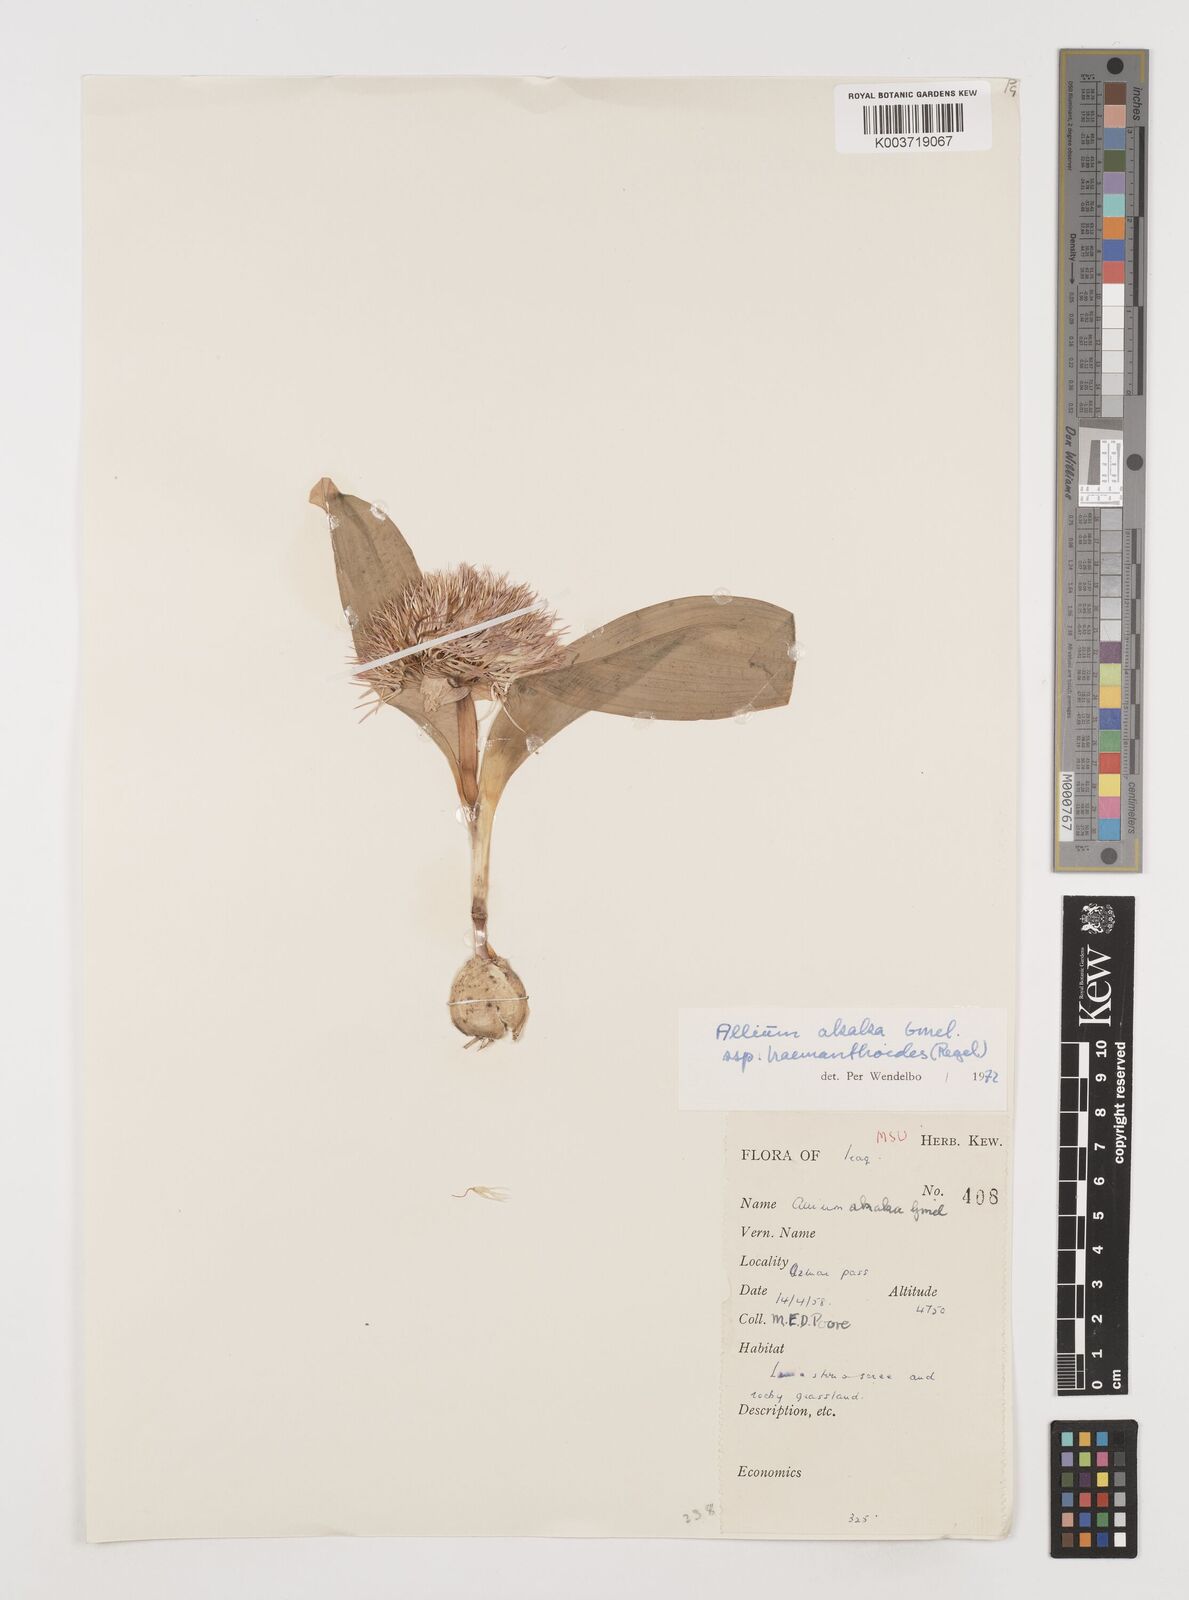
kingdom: Plantae
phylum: Tracheophyta
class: Liliopsida
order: Asparagales
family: Amaryllidaceae
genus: Allium
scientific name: Allium haemanthoides
